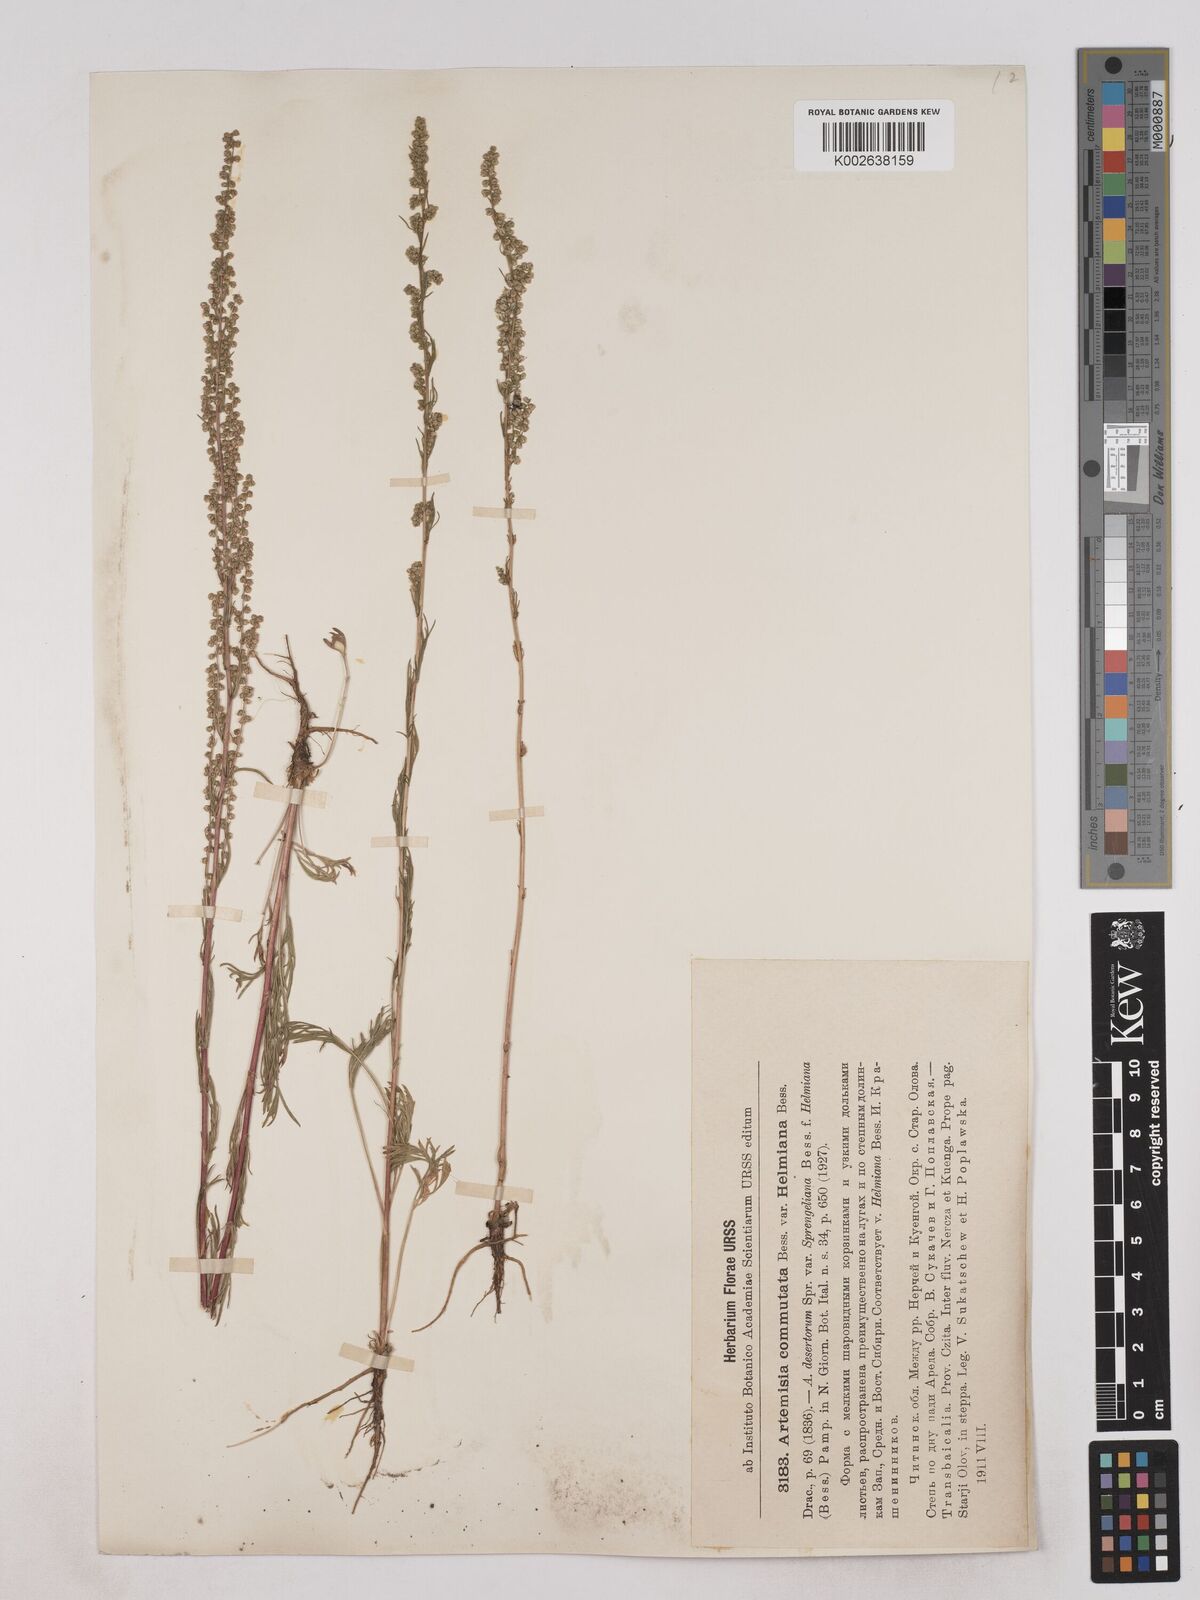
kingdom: Plantae
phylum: Tracheophyta
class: Magnoliopsida
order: Asterales
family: Asteraceae
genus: Artemisia
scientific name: Artemisia pubescens
